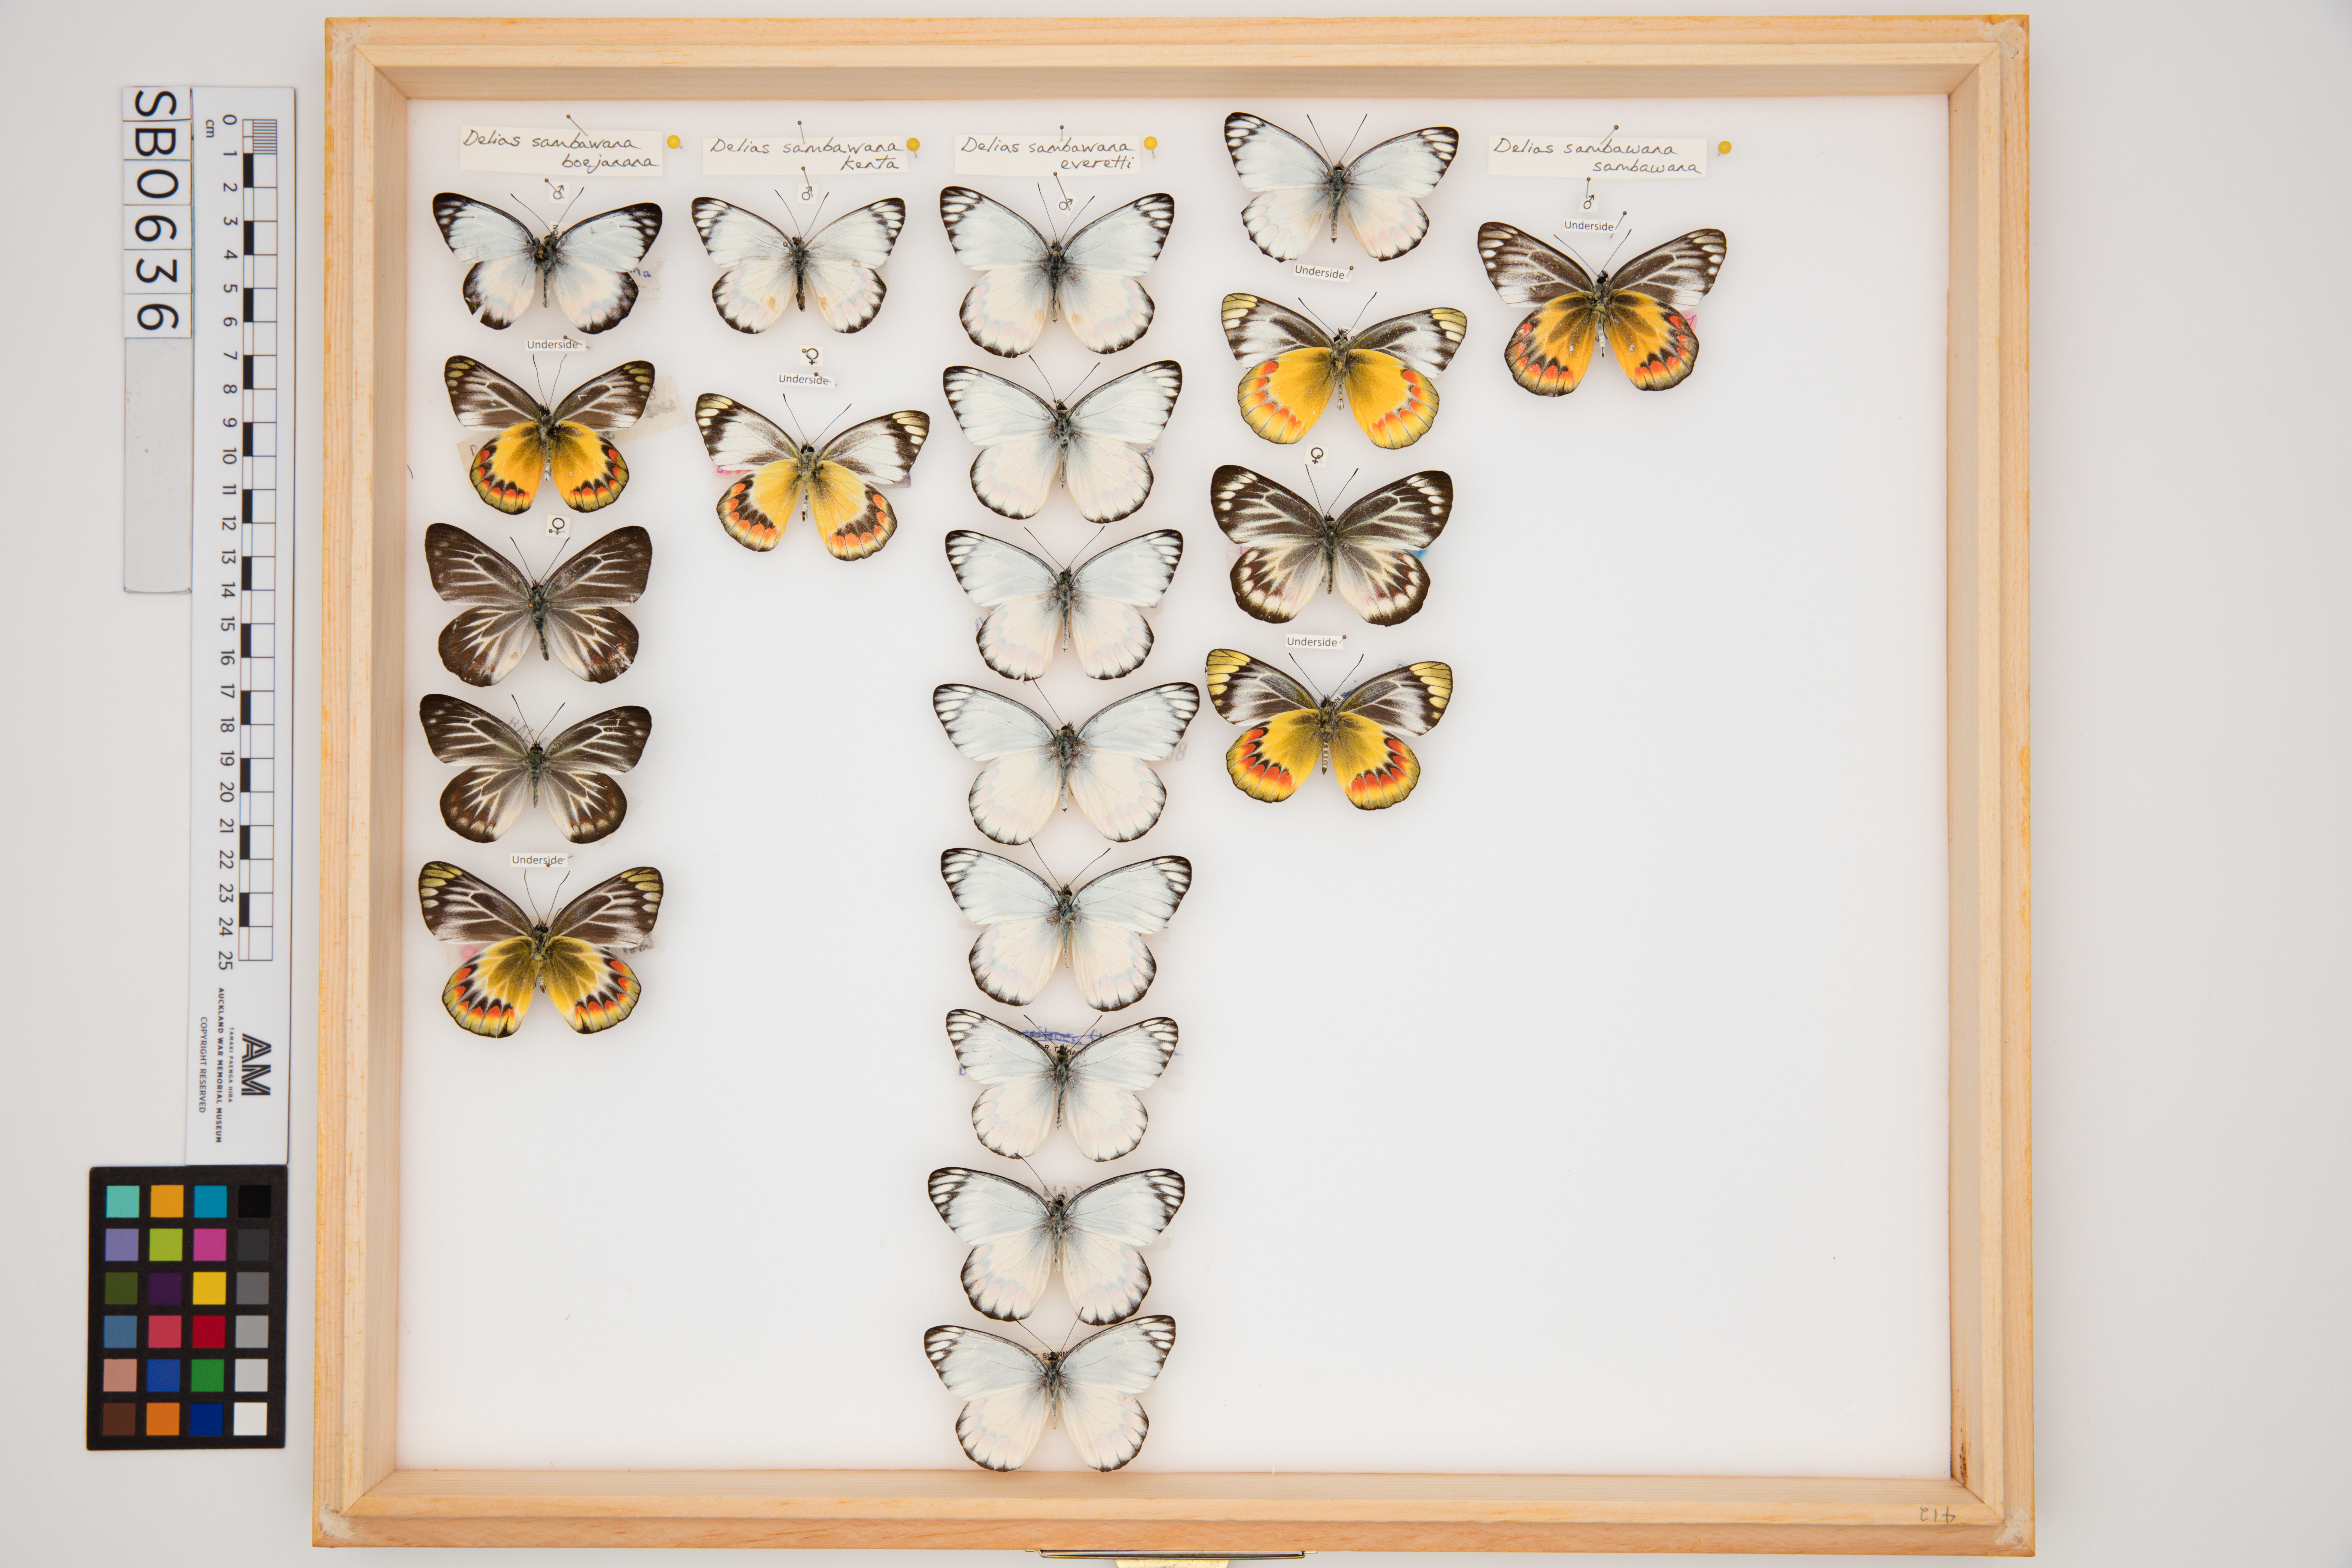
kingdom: Animalia
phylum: Arthropoda
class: Insecta
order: Lepidoptera
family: Pieridae
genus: Delias
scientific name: Delias sambawana
